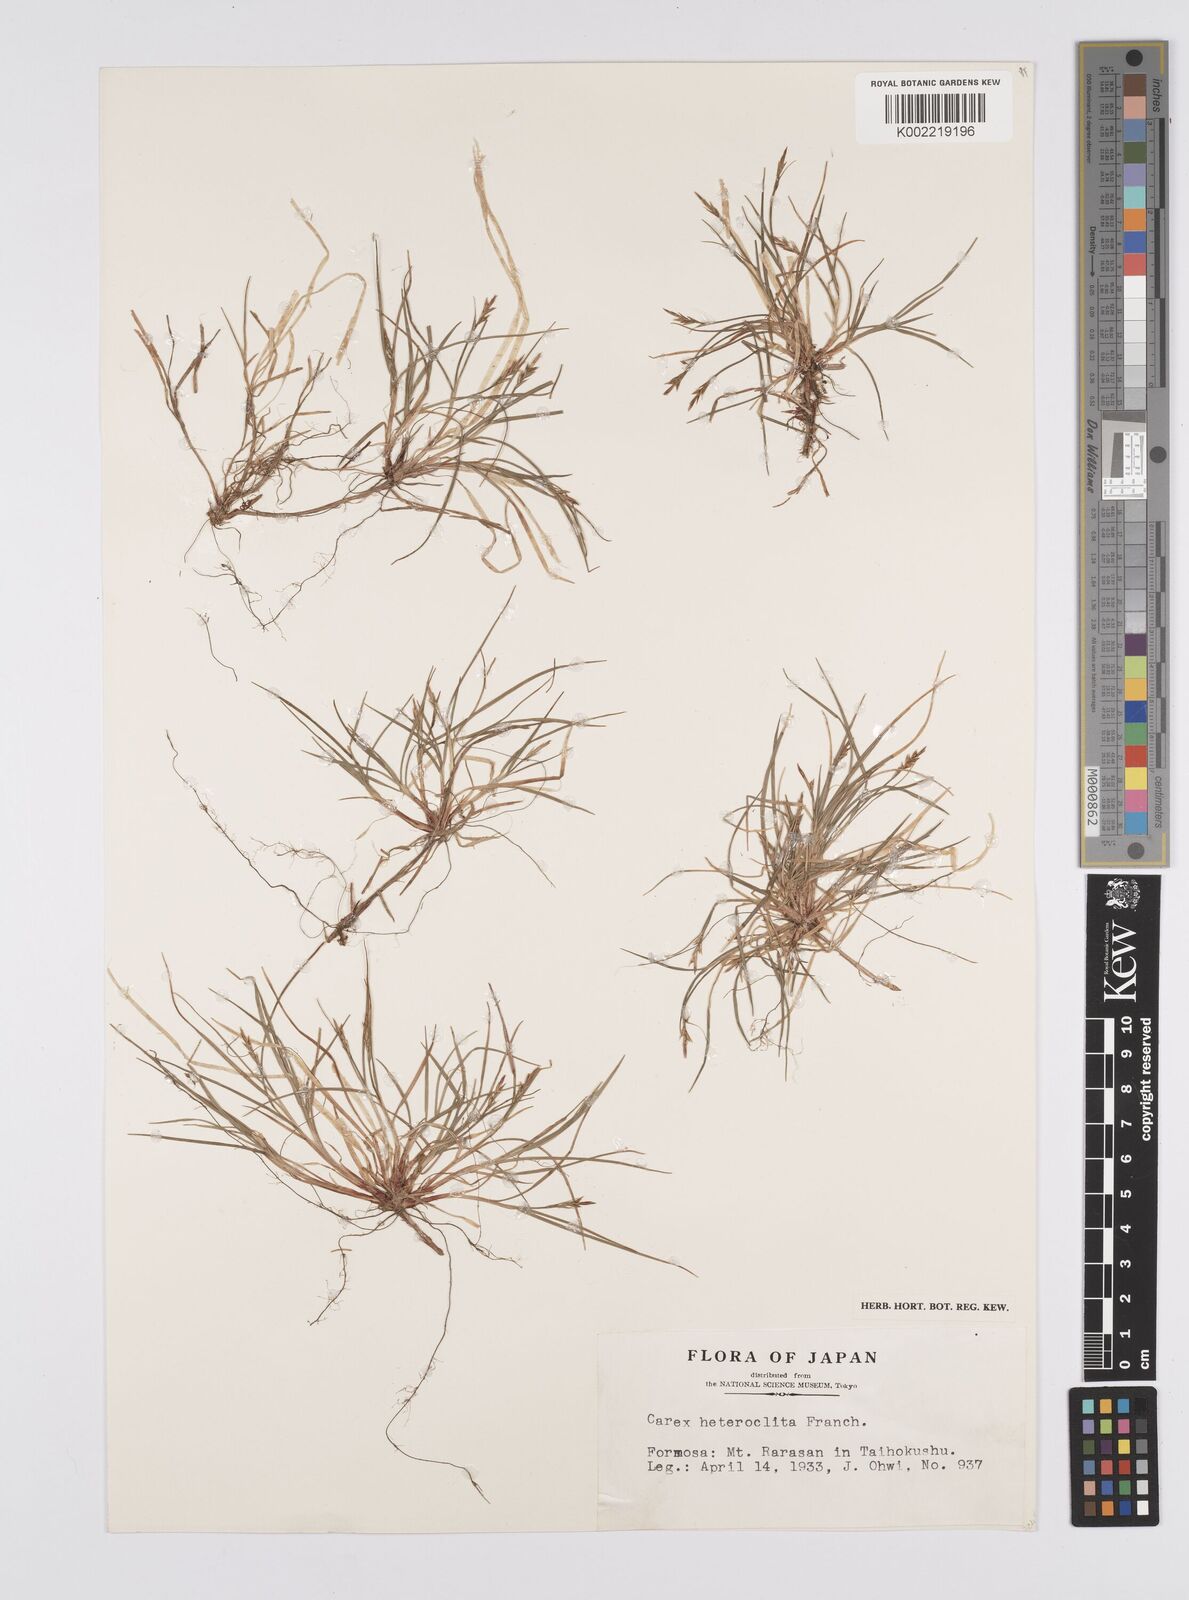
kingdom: Plantae
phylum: Tracheophyta
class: Liliopsida
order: Poales
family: Cyperaceae
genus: Carex
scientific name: Carex grallatoria
